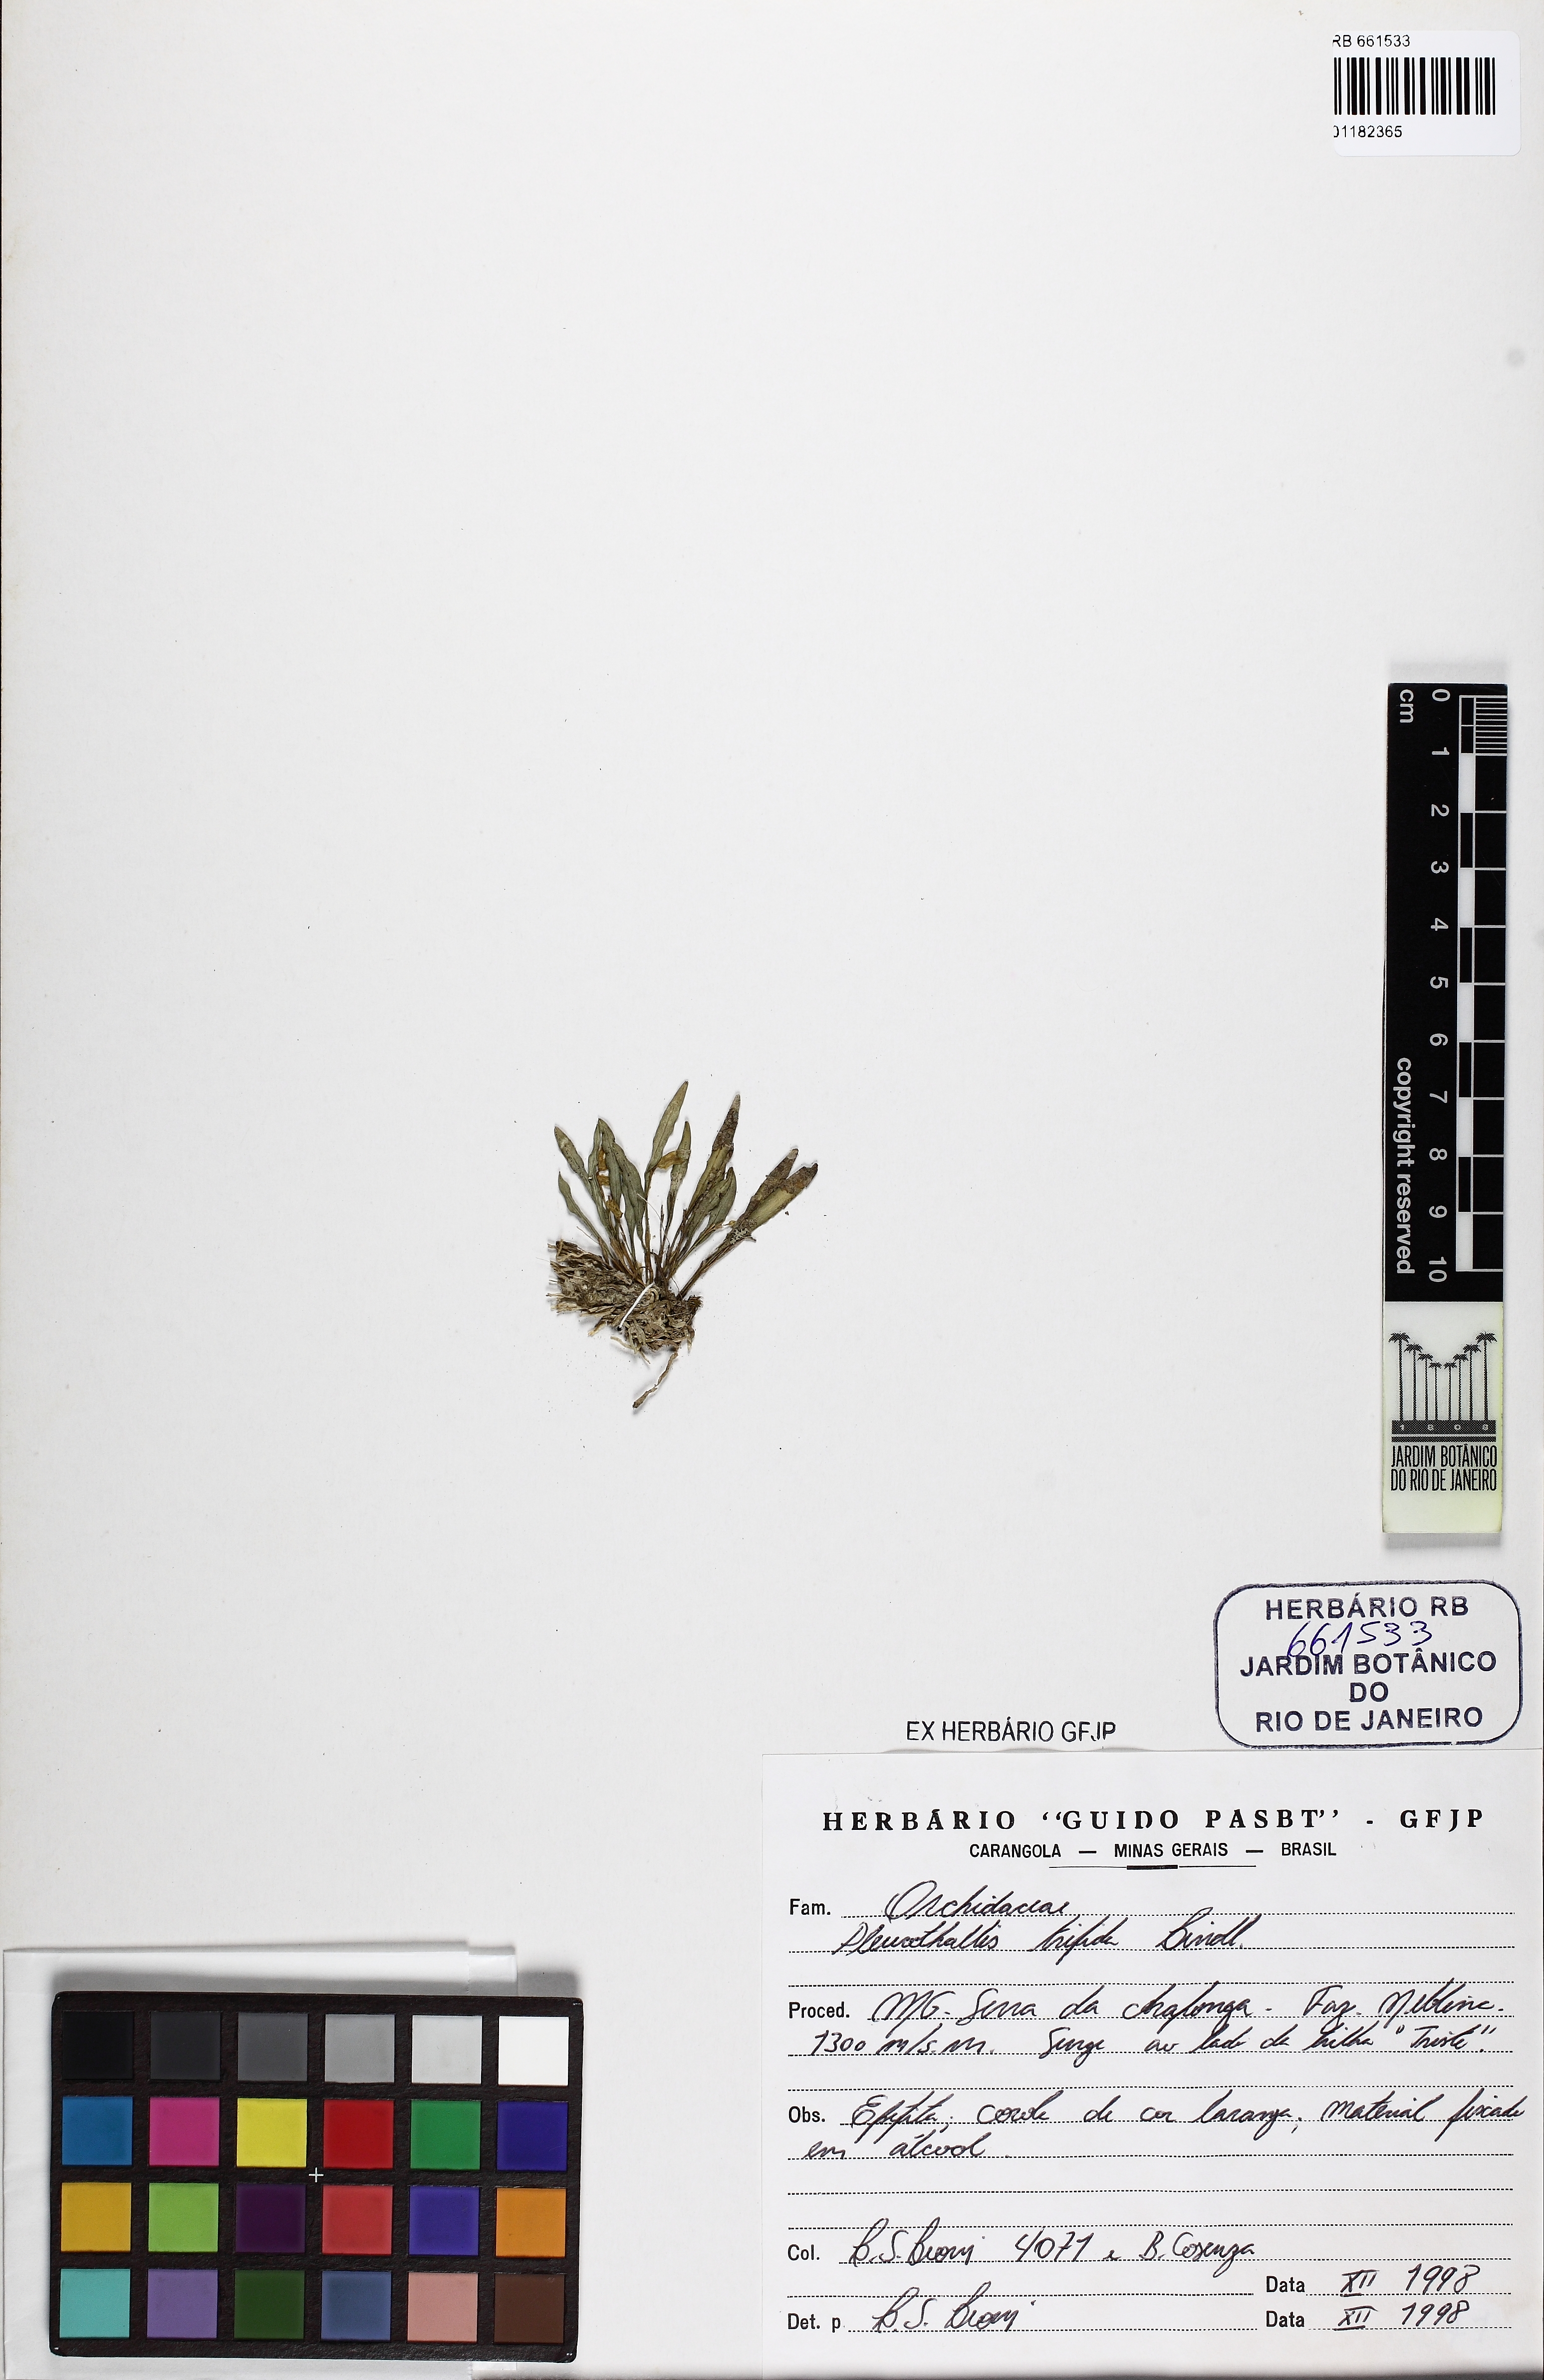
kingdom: Plantae
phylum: Tracheophyta
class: Liliopsida
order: Asparagales
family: Orchidaceae
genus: Pabstiella
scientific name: Pabstiella trifida
